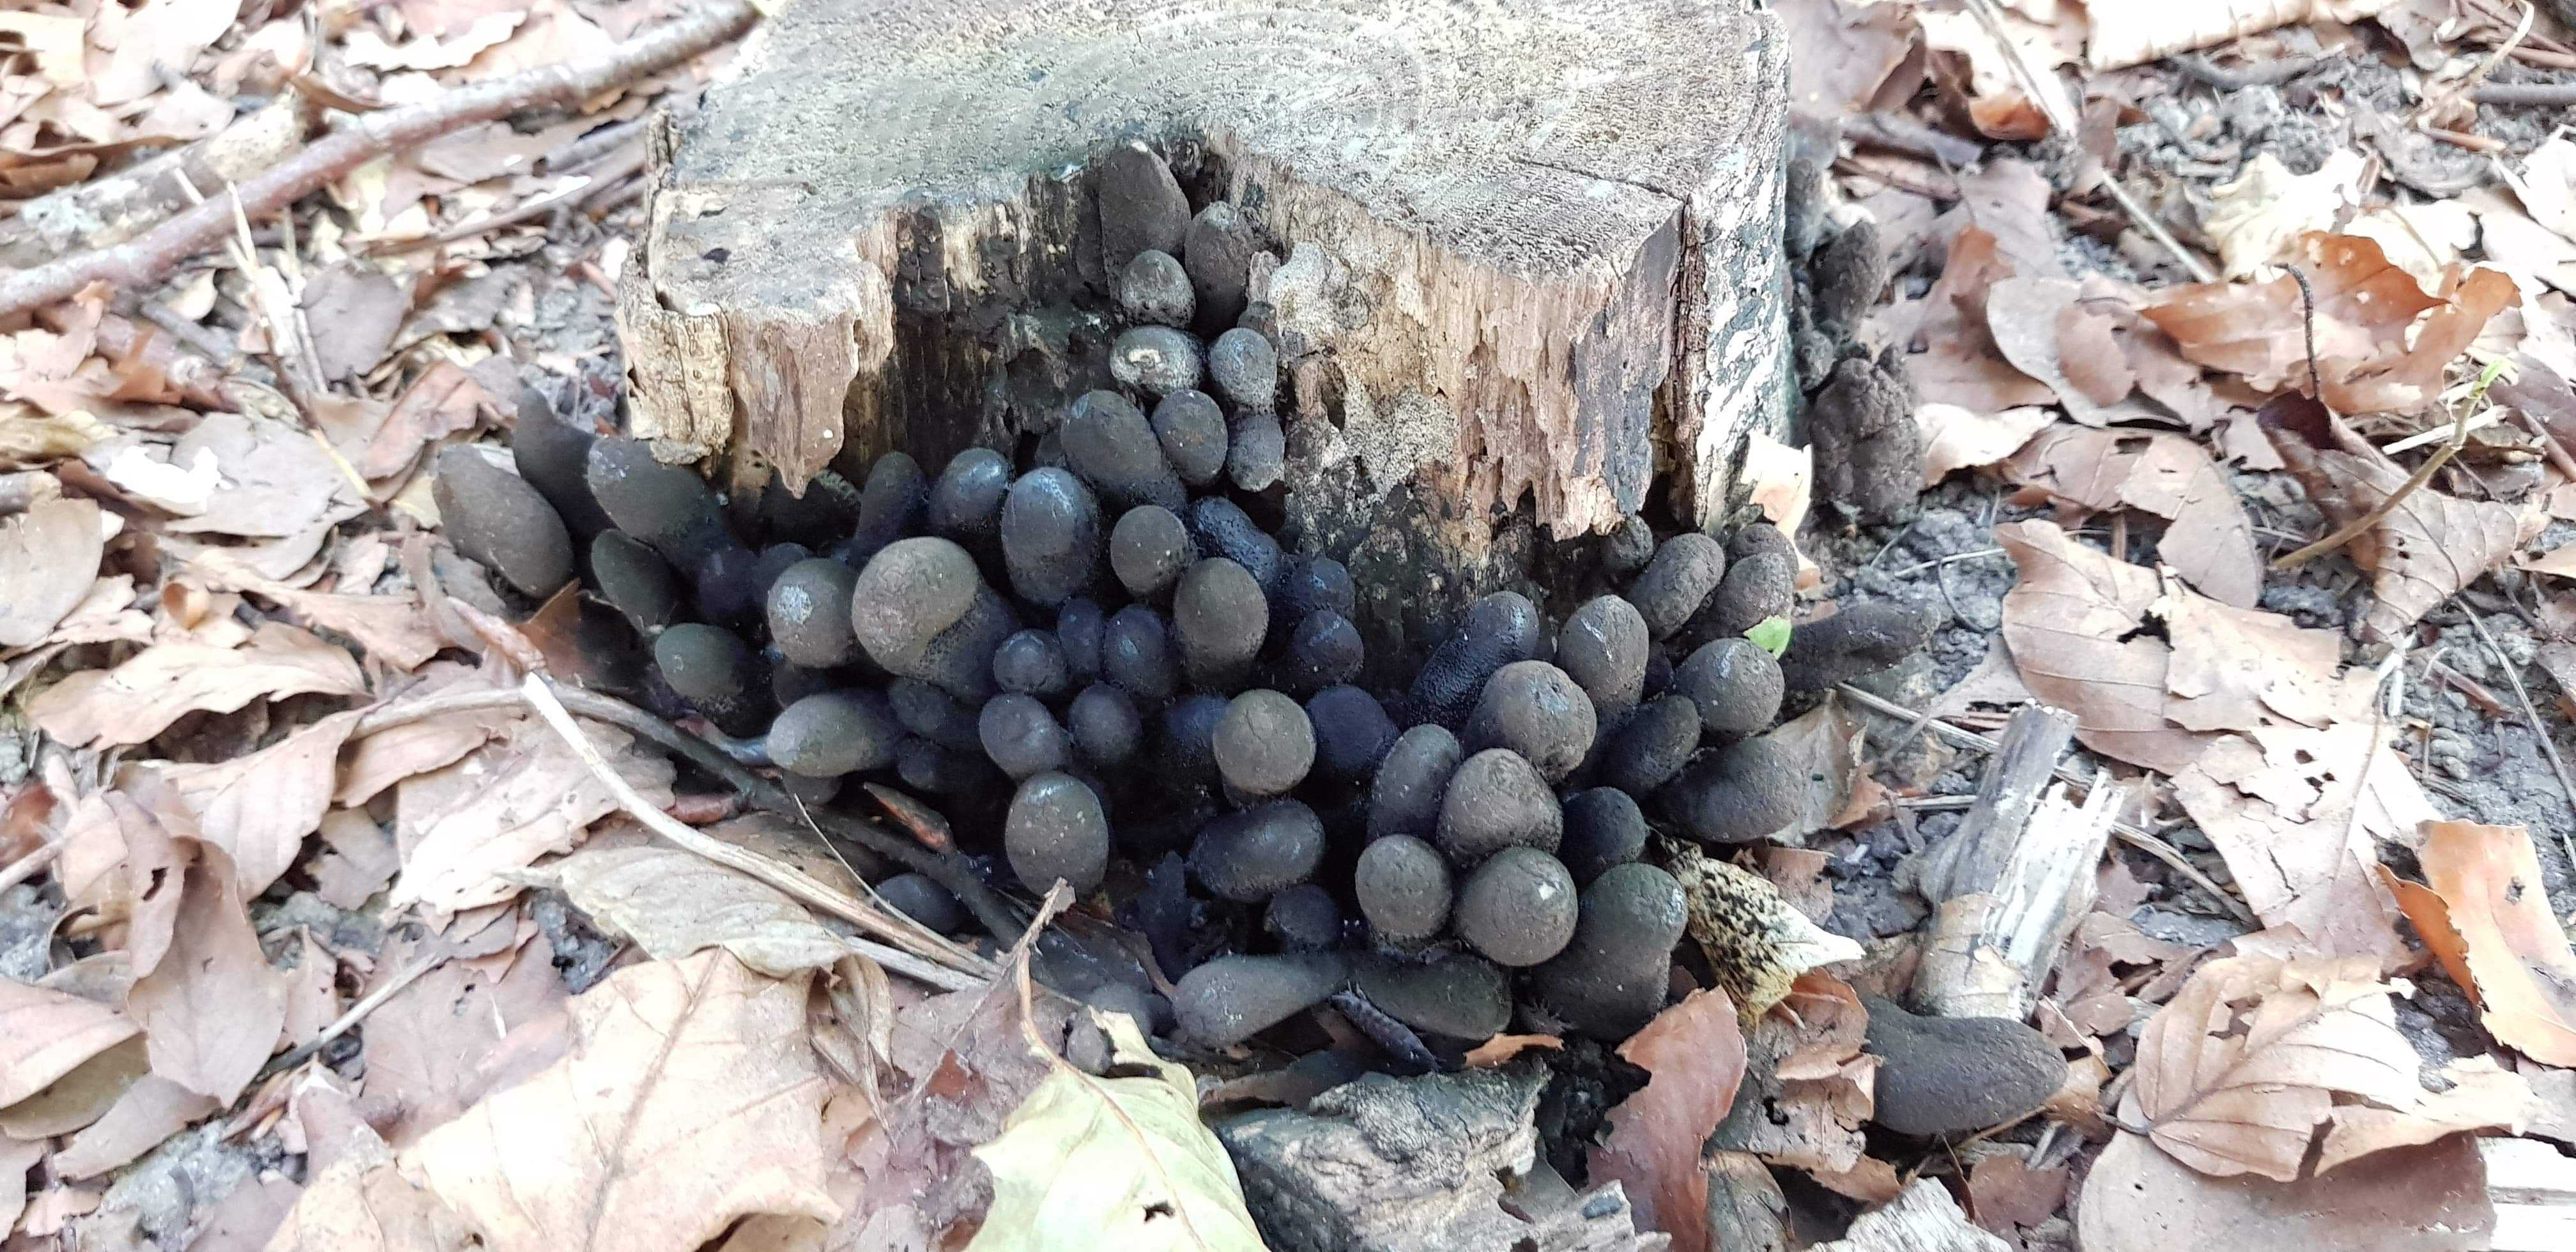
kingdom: Fungi
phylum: Ascomycota
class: Sordariomycetes
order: Xylariales
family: Xylariaceae
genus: Xylaria
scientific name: Xylaria polymorpha
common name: kølle-stødsvamp
